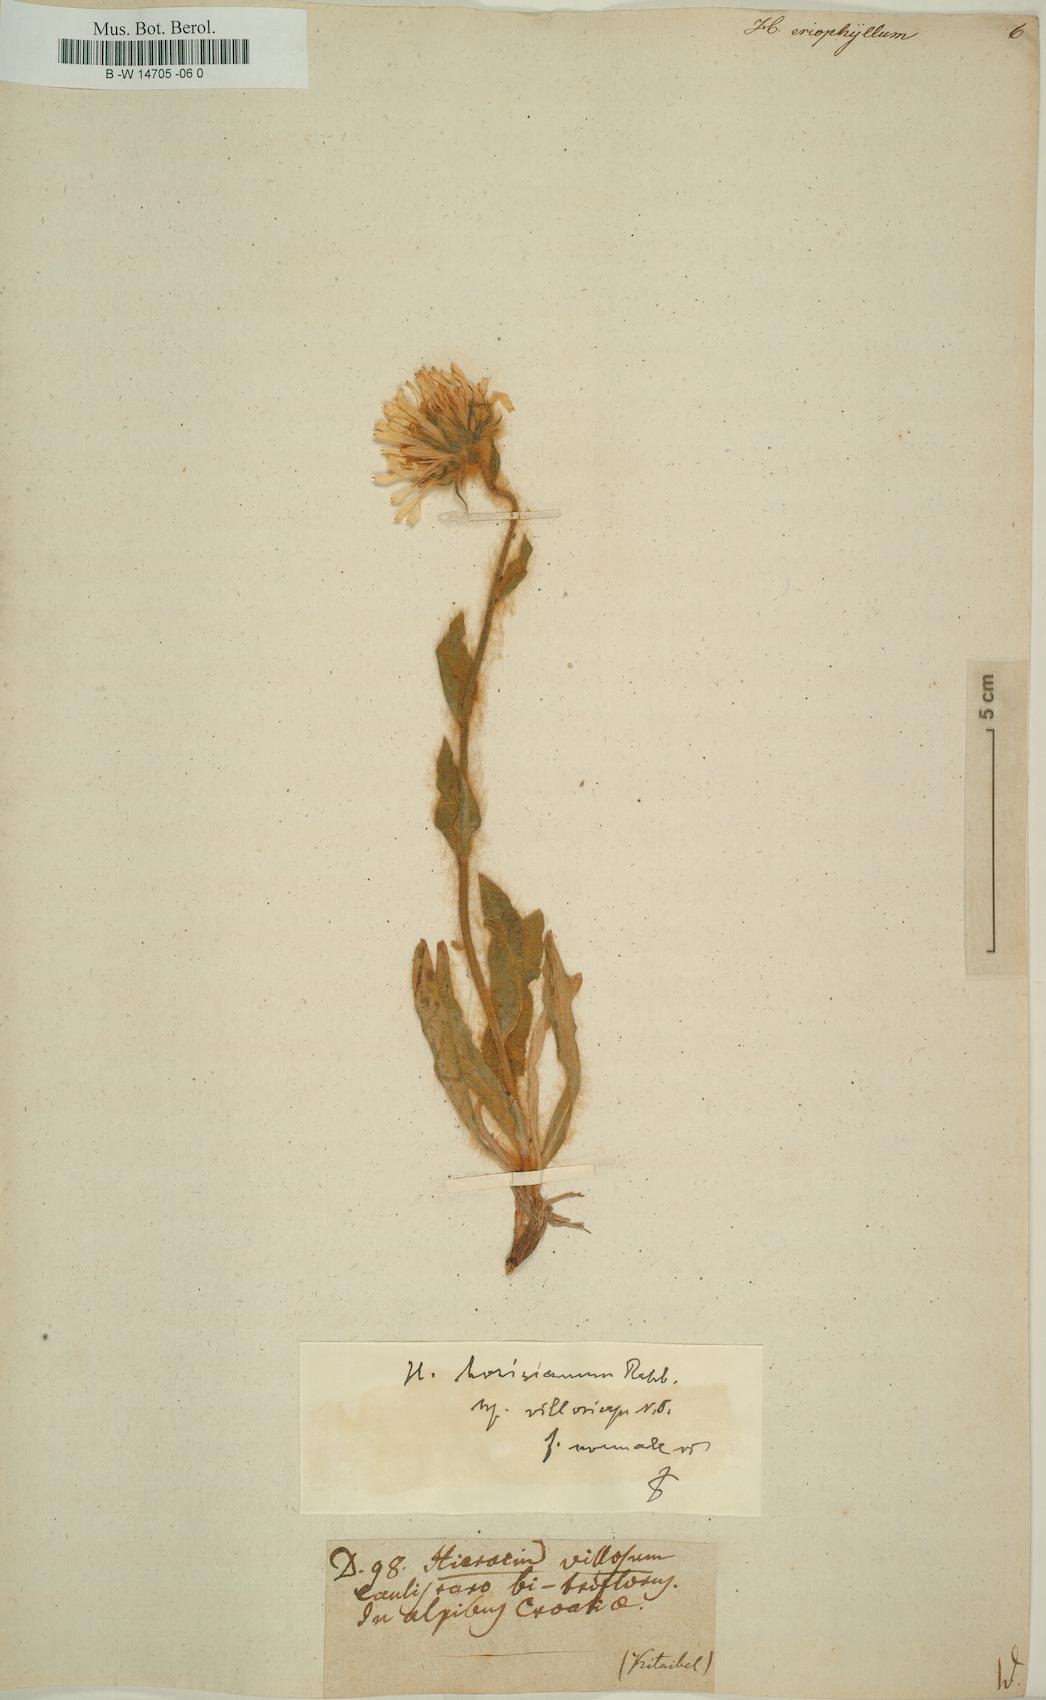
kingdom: Plantae
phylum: Tracheophyta
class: Magnoliopsida
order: Asterales
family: Asteraceae
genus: Hieracium
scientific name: Hieracium villosum
